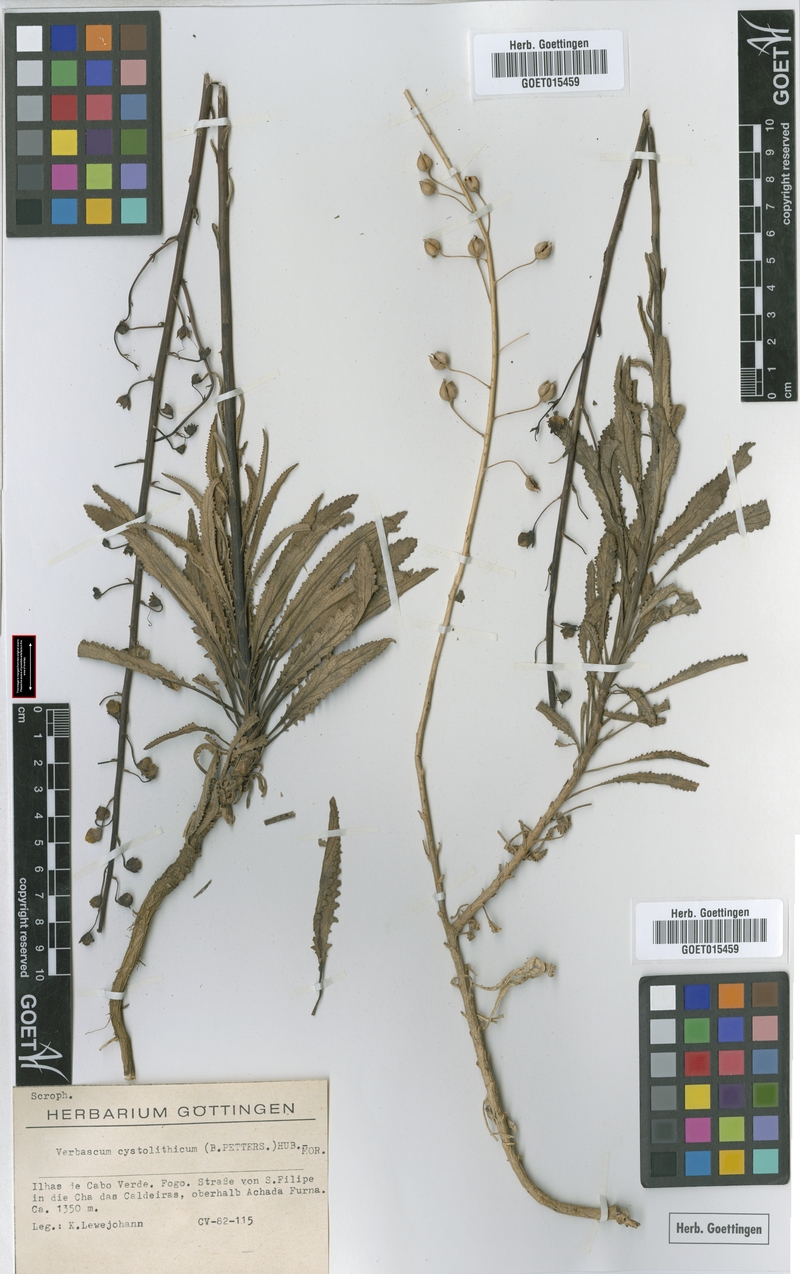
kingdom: Plantae
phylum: Tracheophyta
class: Magnoliopsida
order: Lamiales
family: Scrophulariaceae
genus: Verbascum
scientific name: Verbascum cystolithicum
